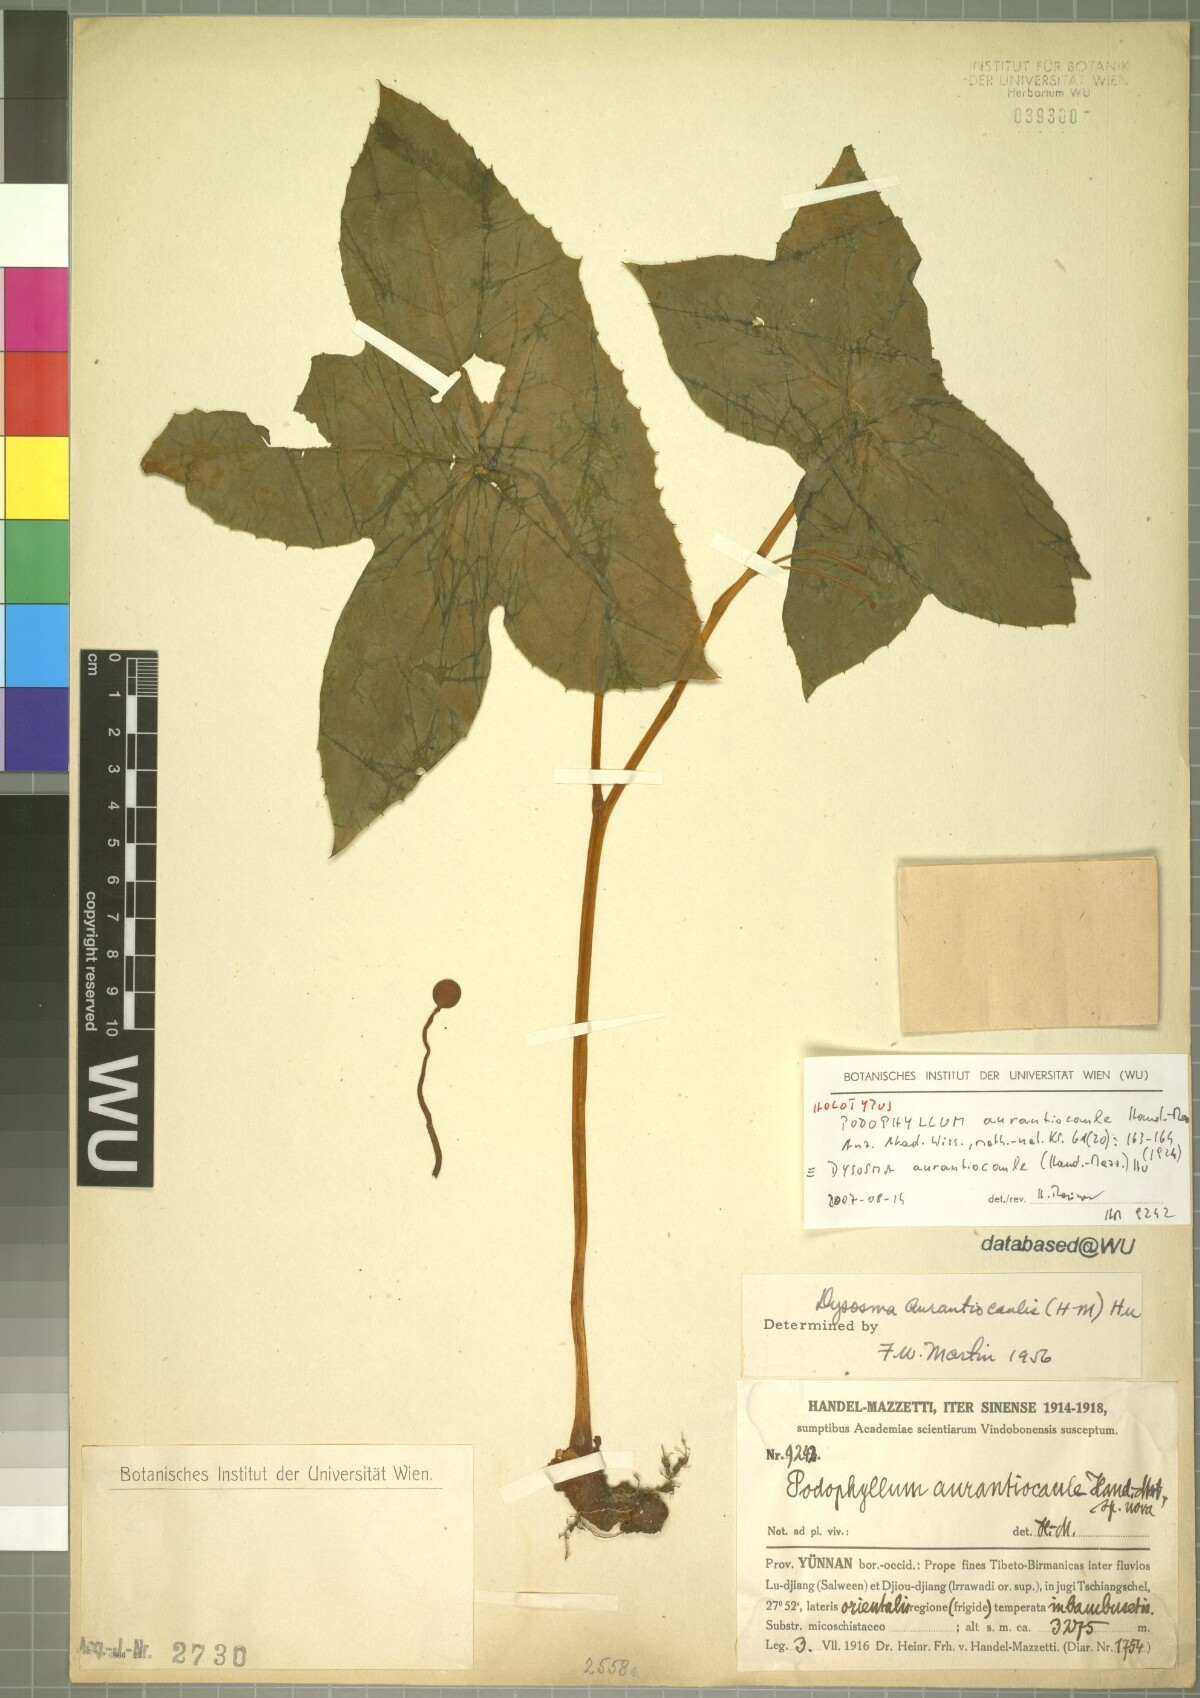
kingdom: Plantae
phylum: Tracheophyta
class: Magnoliopsida
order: Ranunculales
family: Berberidaceae
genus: Dysosma
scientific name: Dysosma aurantiocaulis
